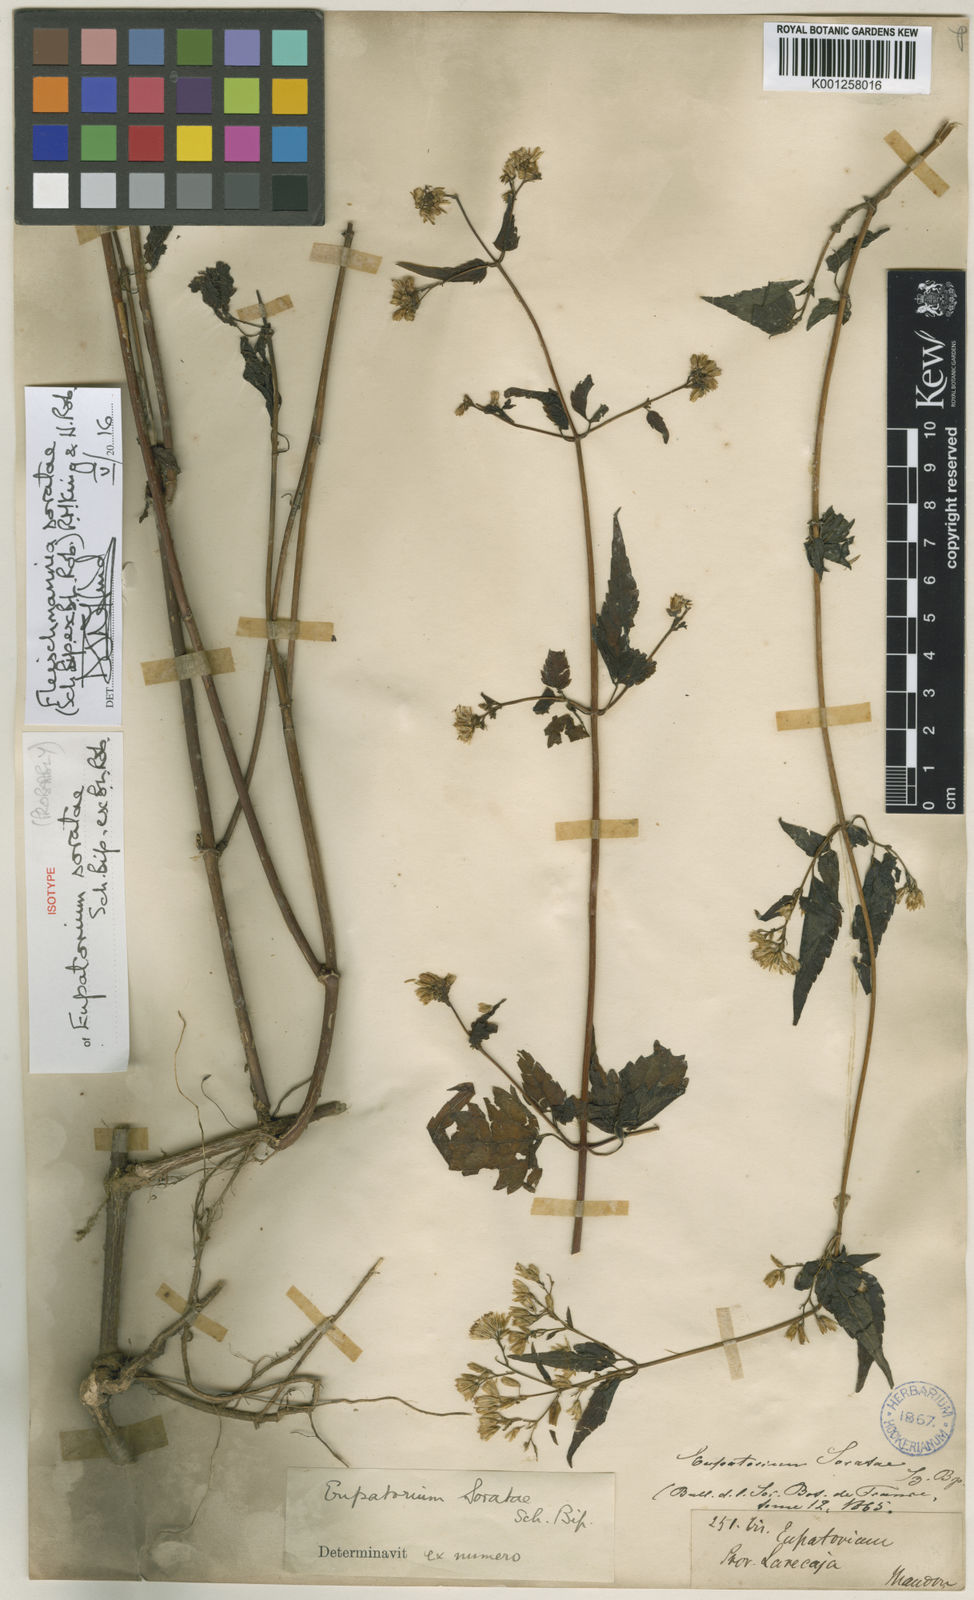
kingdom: Plantae
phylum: Tracheophyta
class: Magnoliopsida
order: Asterales
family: Asteraceae
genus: Fleischmannia
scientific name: Fleischmannia soratae
